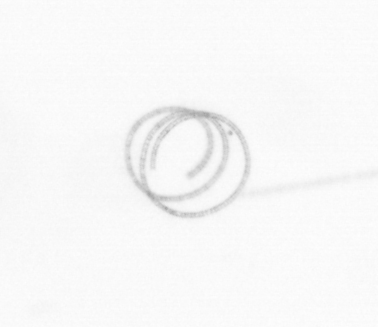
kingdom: Chromista
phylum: Ochrophyta
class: Bacillariophyceae
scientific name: Bacillariophyceae
